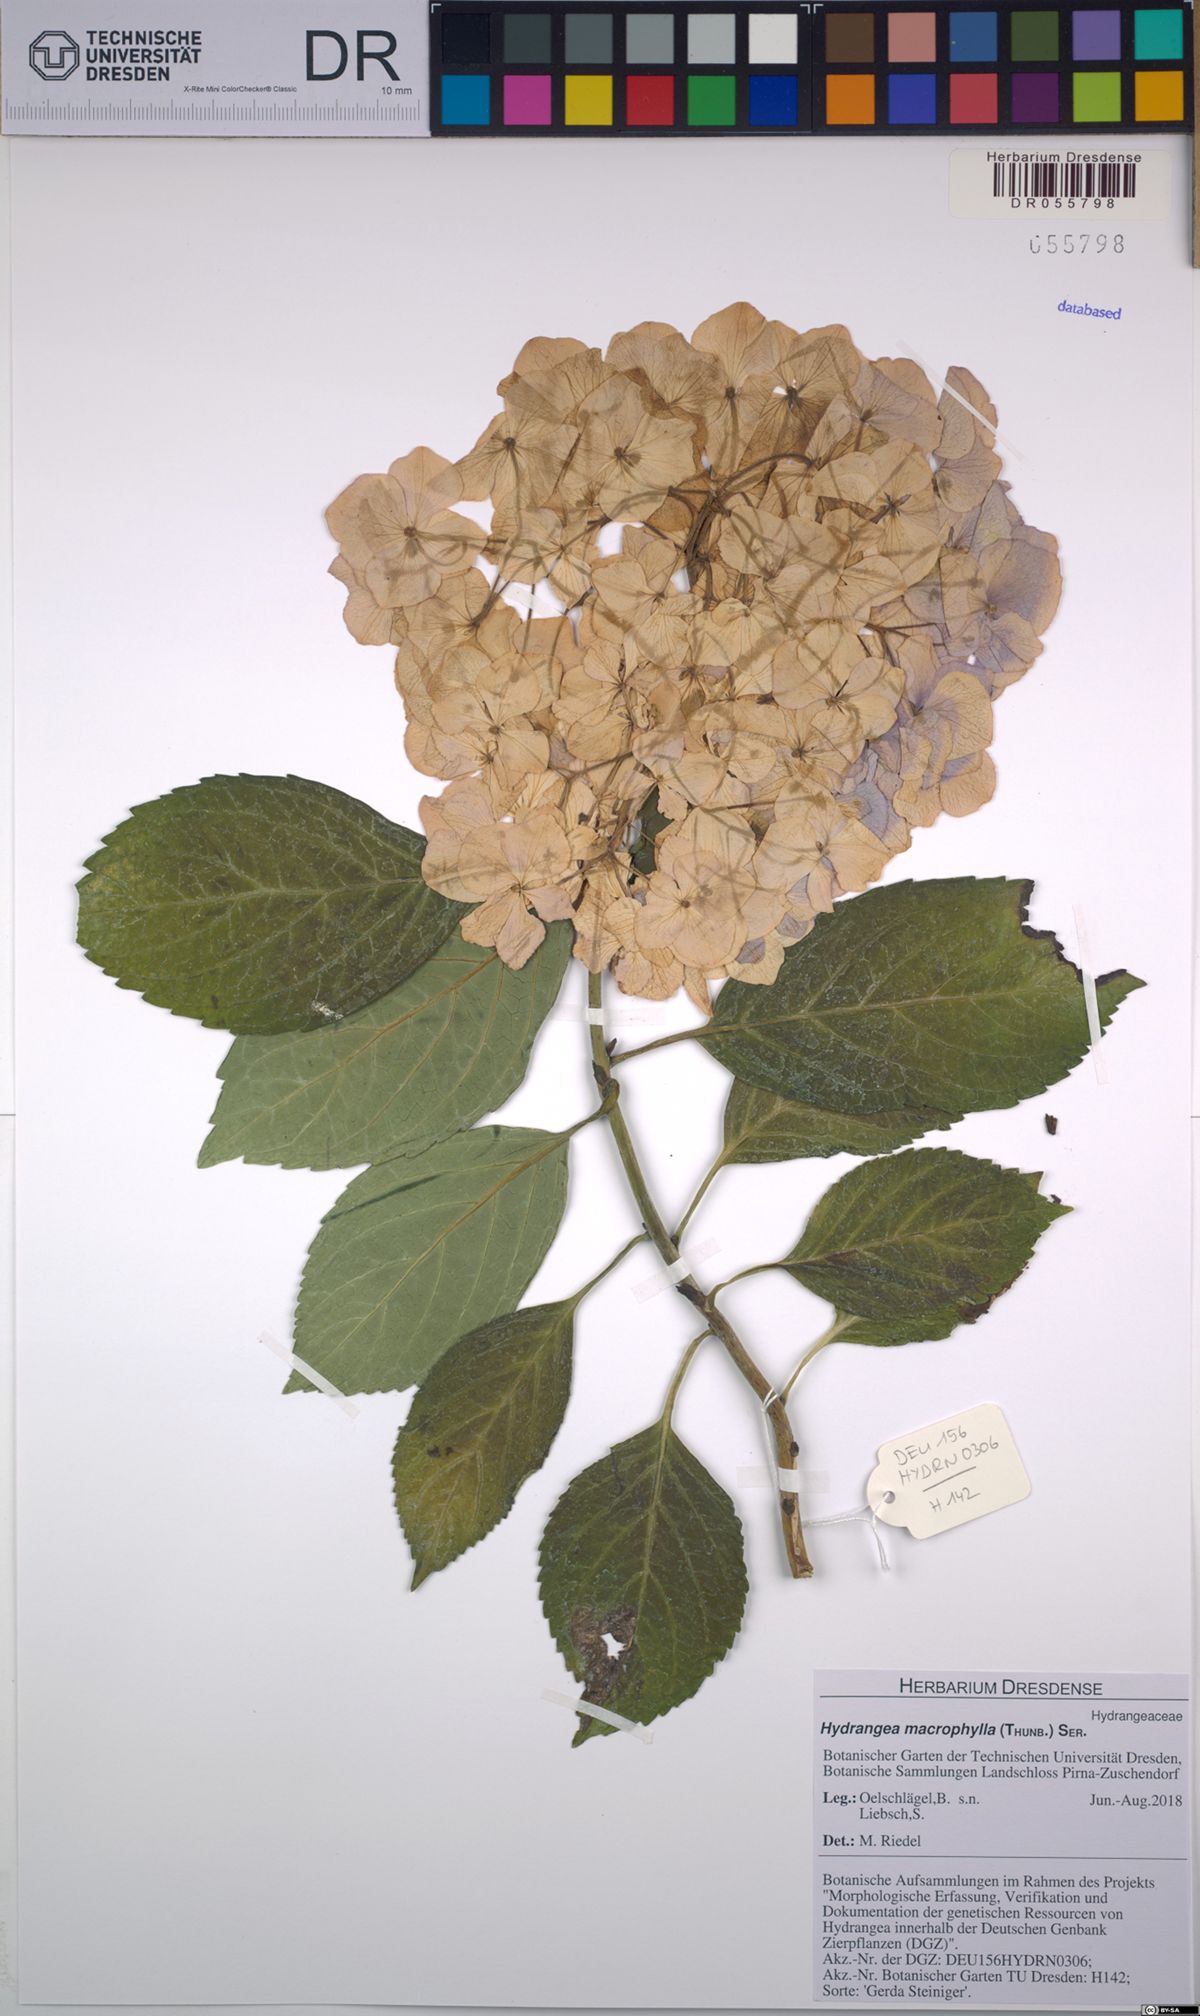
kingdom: Plantae
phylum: Tracheophyta
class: Magnoliopsida
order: Cornales
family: Hydrangeaceae
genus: Hydrangea
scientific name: Hydrangea macrophylla
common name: Hydrangea
